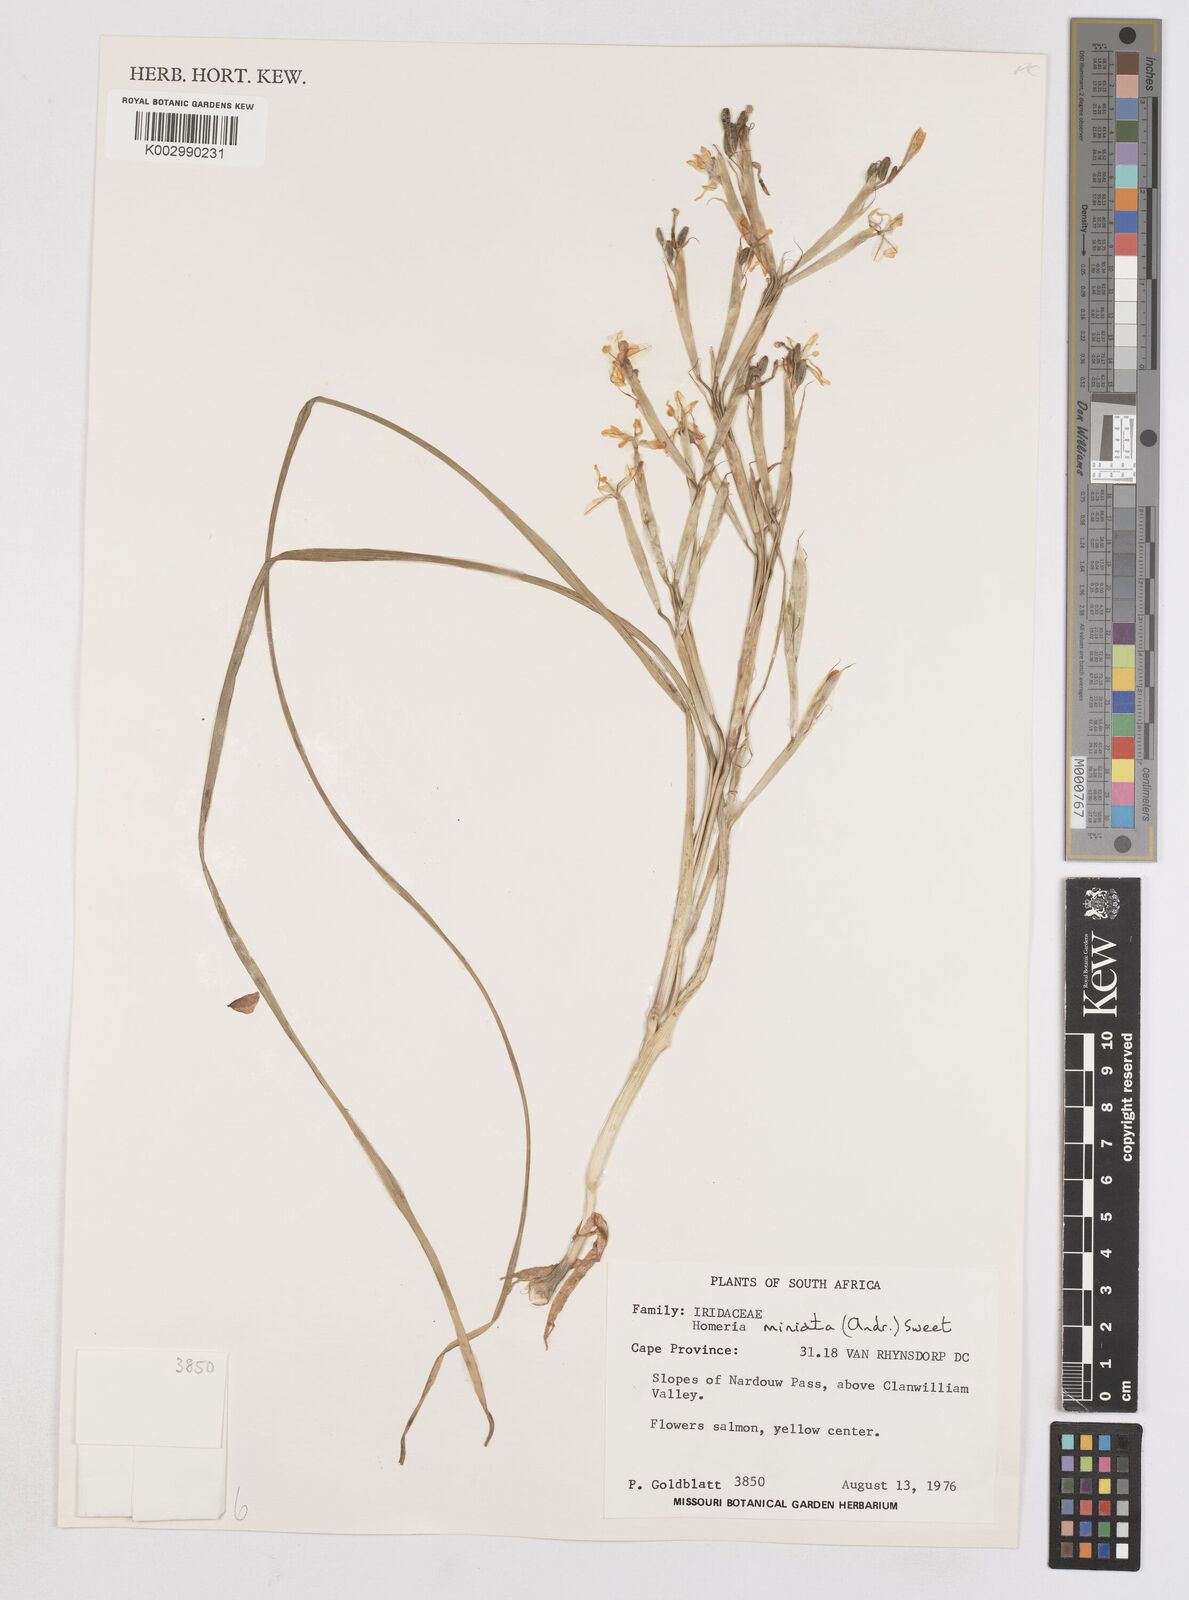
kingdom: Plantae
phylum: Tracheophyta
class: Liliopsida
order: Asparagales
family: Iridaceae
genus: Moraea
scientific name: Moraea miniata
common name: Two-leaf cape-tulip
